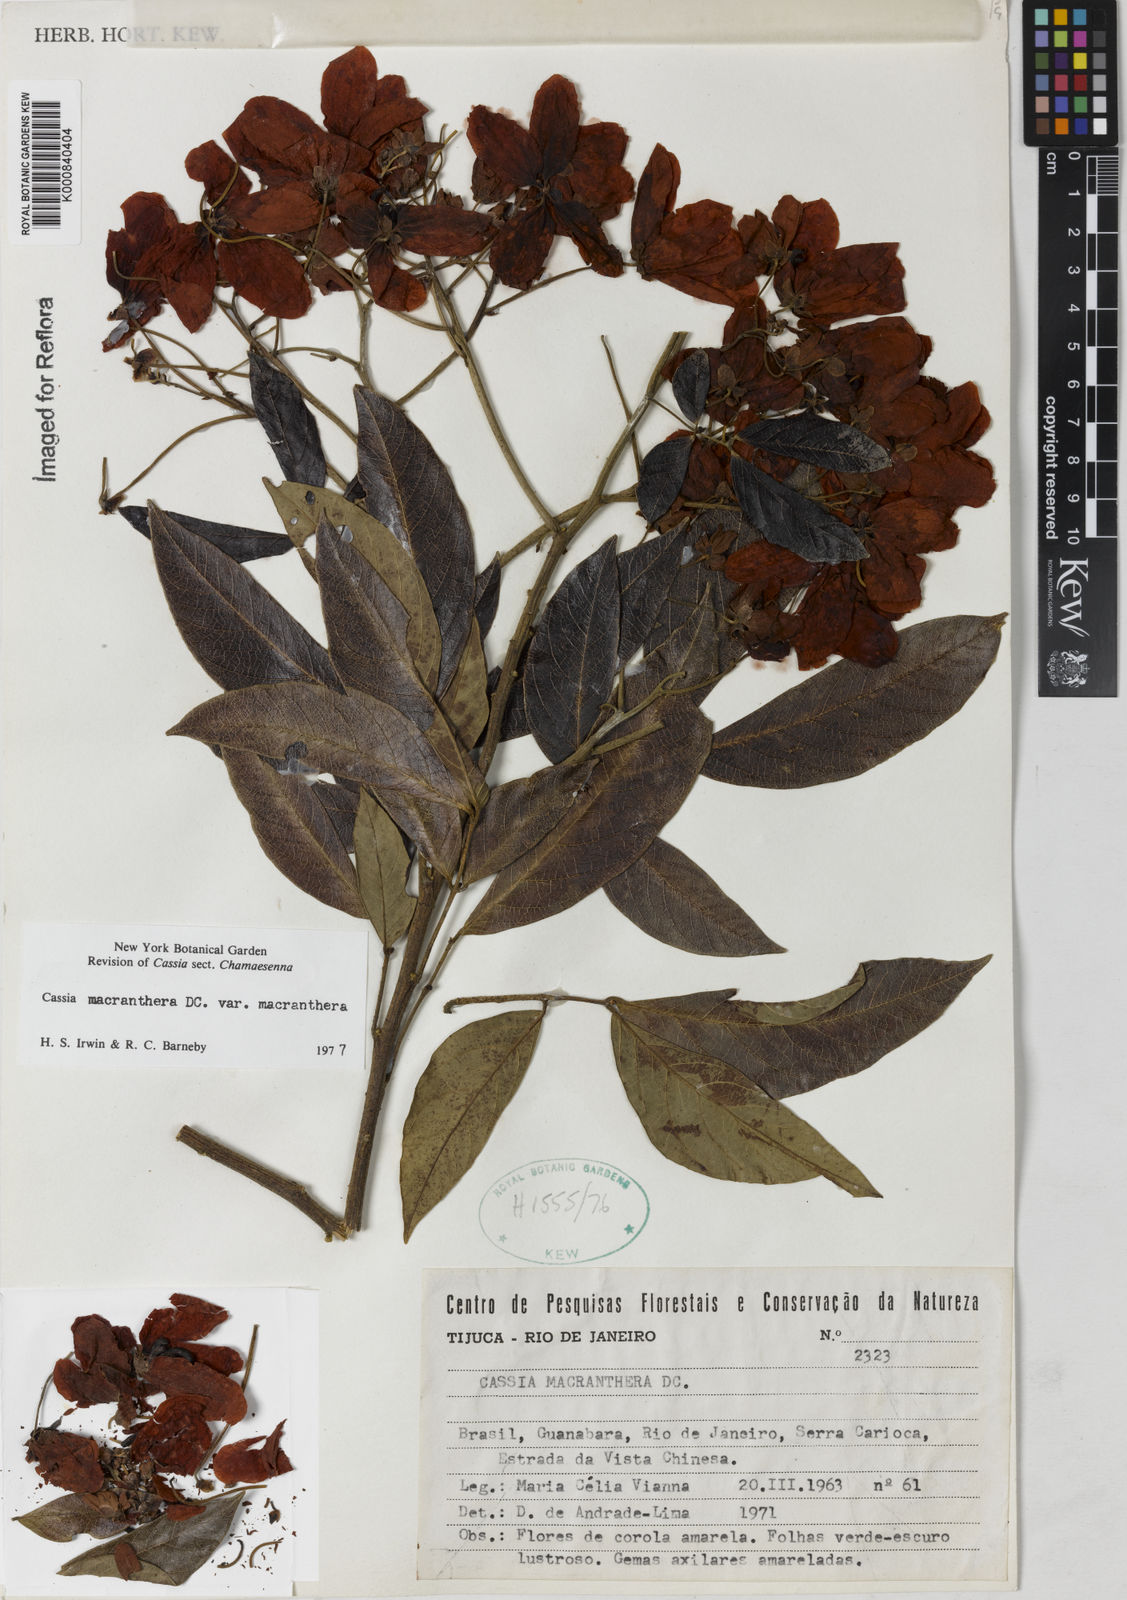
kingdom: Plantae
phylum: Tracheophyta
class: Magnoliopsida
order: Fabales
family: Fabaceae
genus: Senna
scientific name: Senna macranthera
